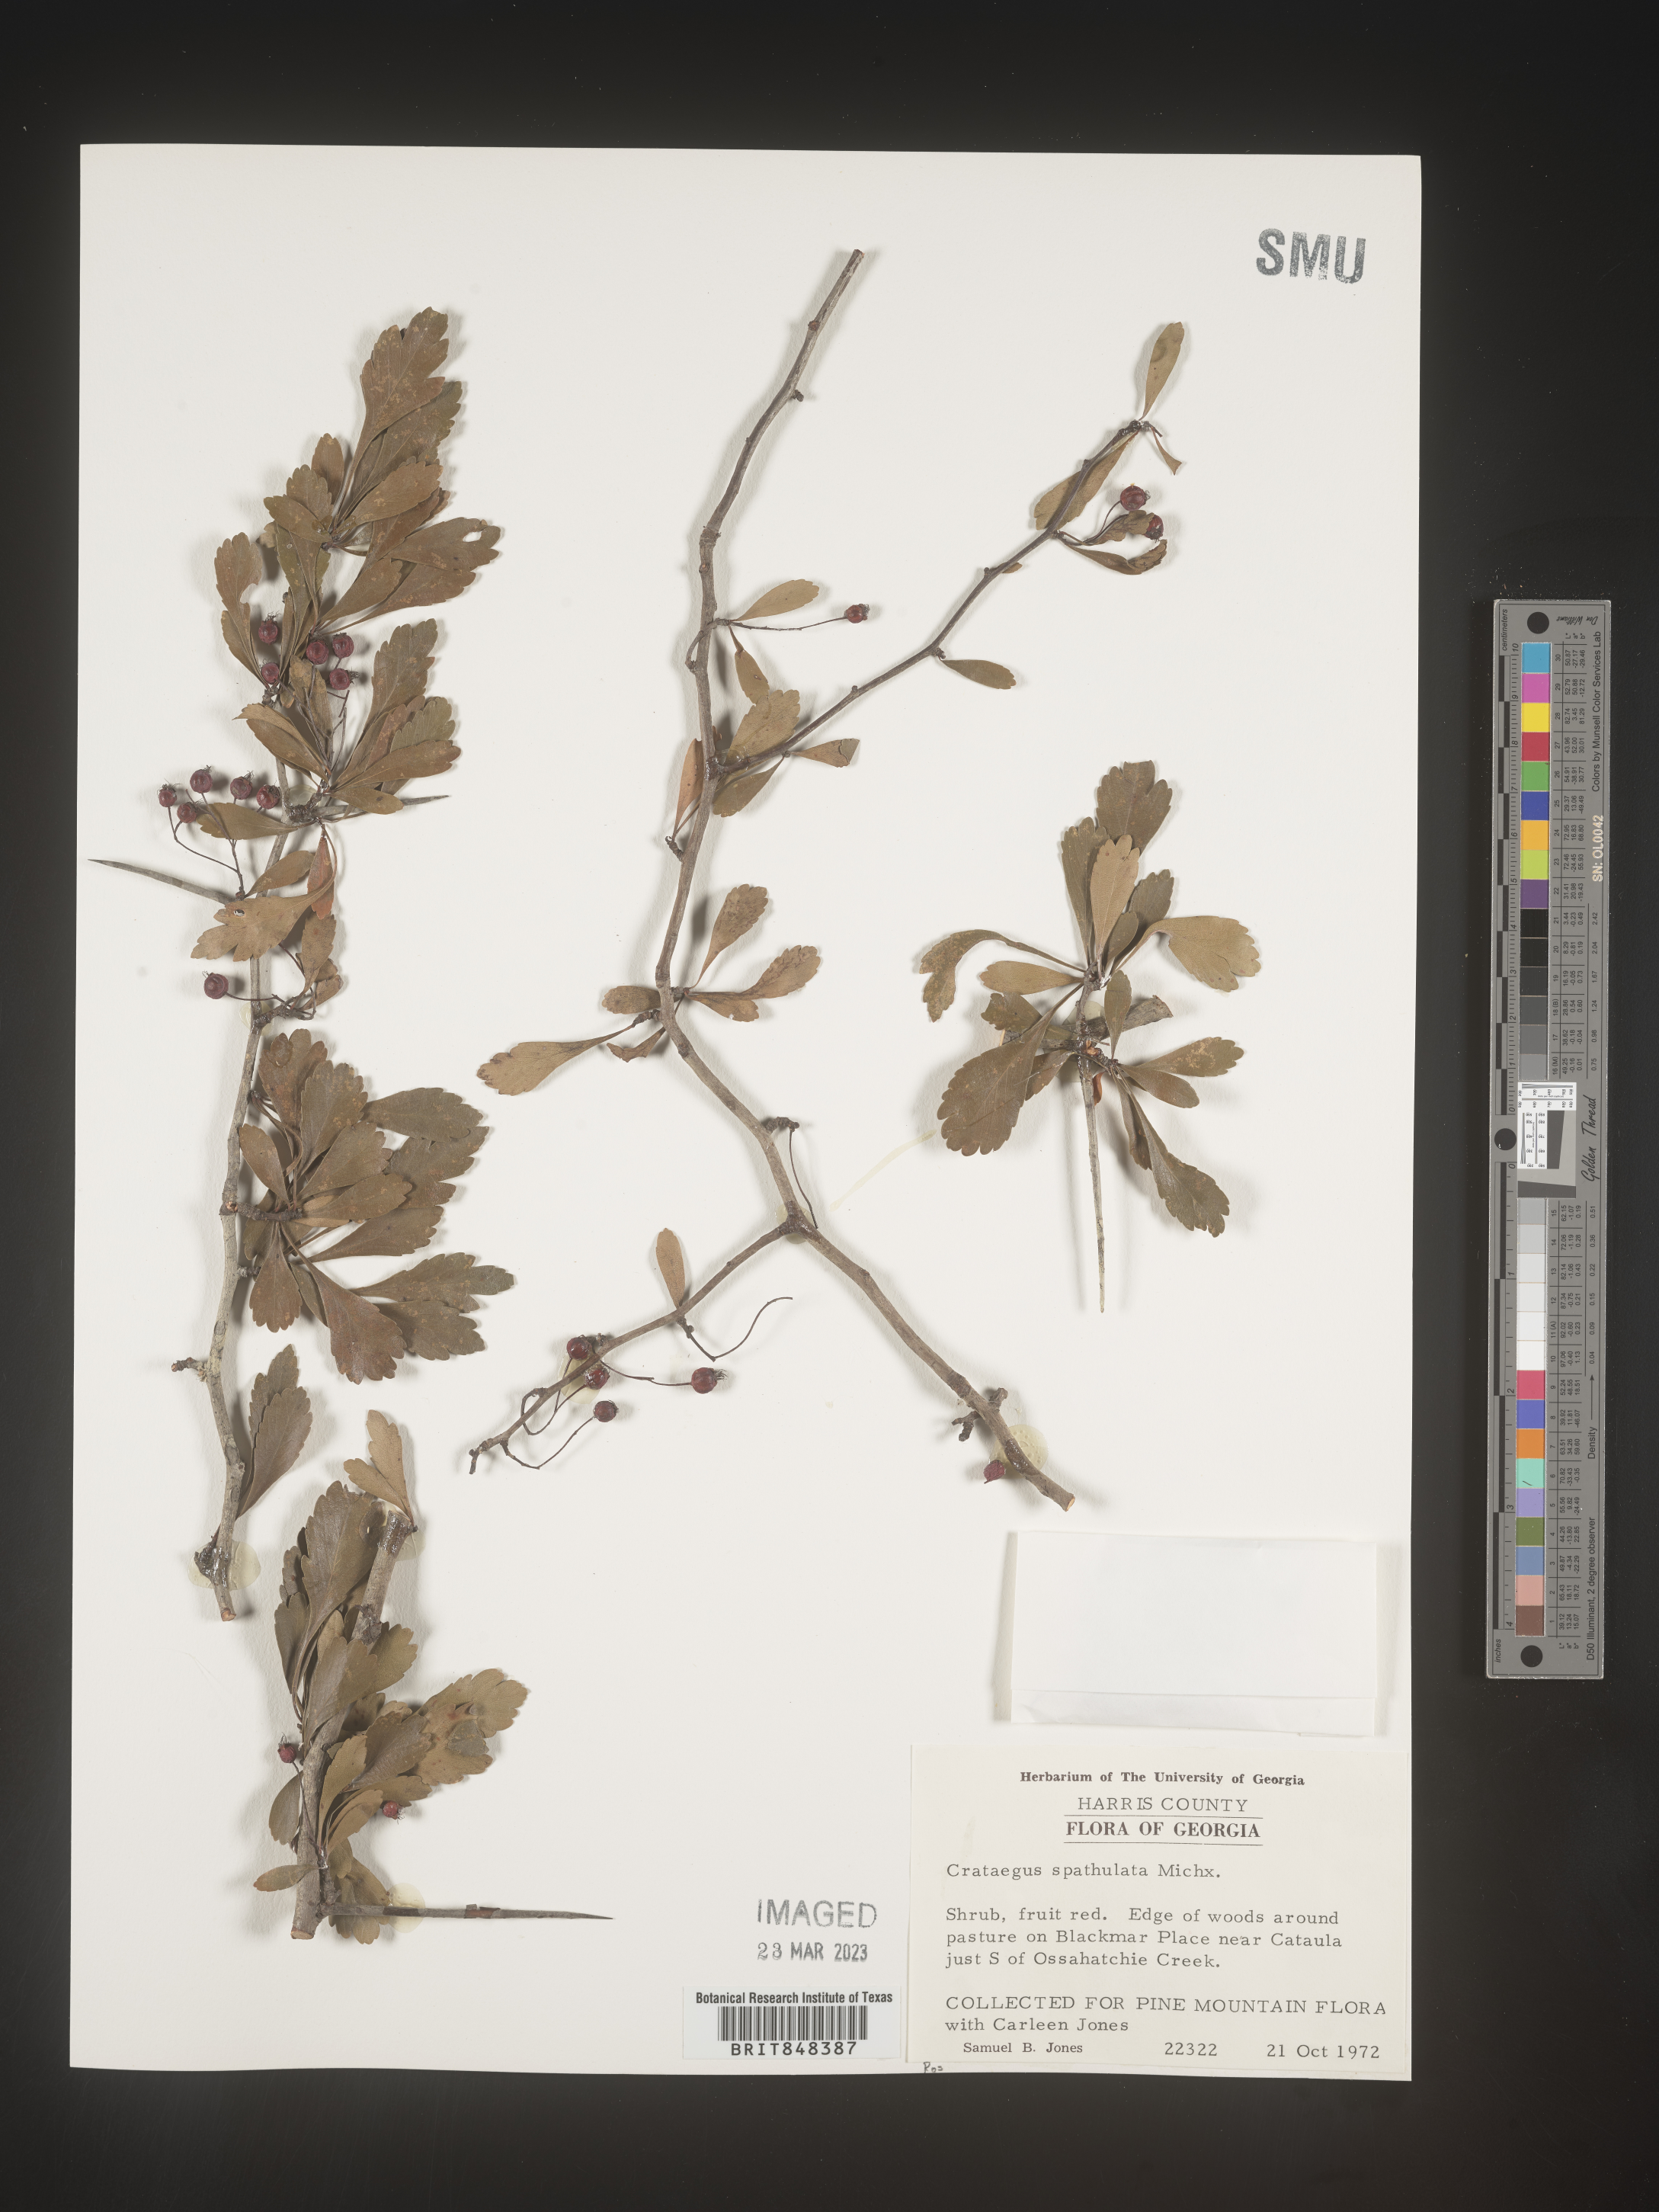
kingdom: Plantae
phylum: Tracheophyta
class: Magnoliopsida
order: Rosales
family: Rosaceae
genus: Crataegus
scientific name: Crataegus spathulata
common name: Littlehip hawthorn
